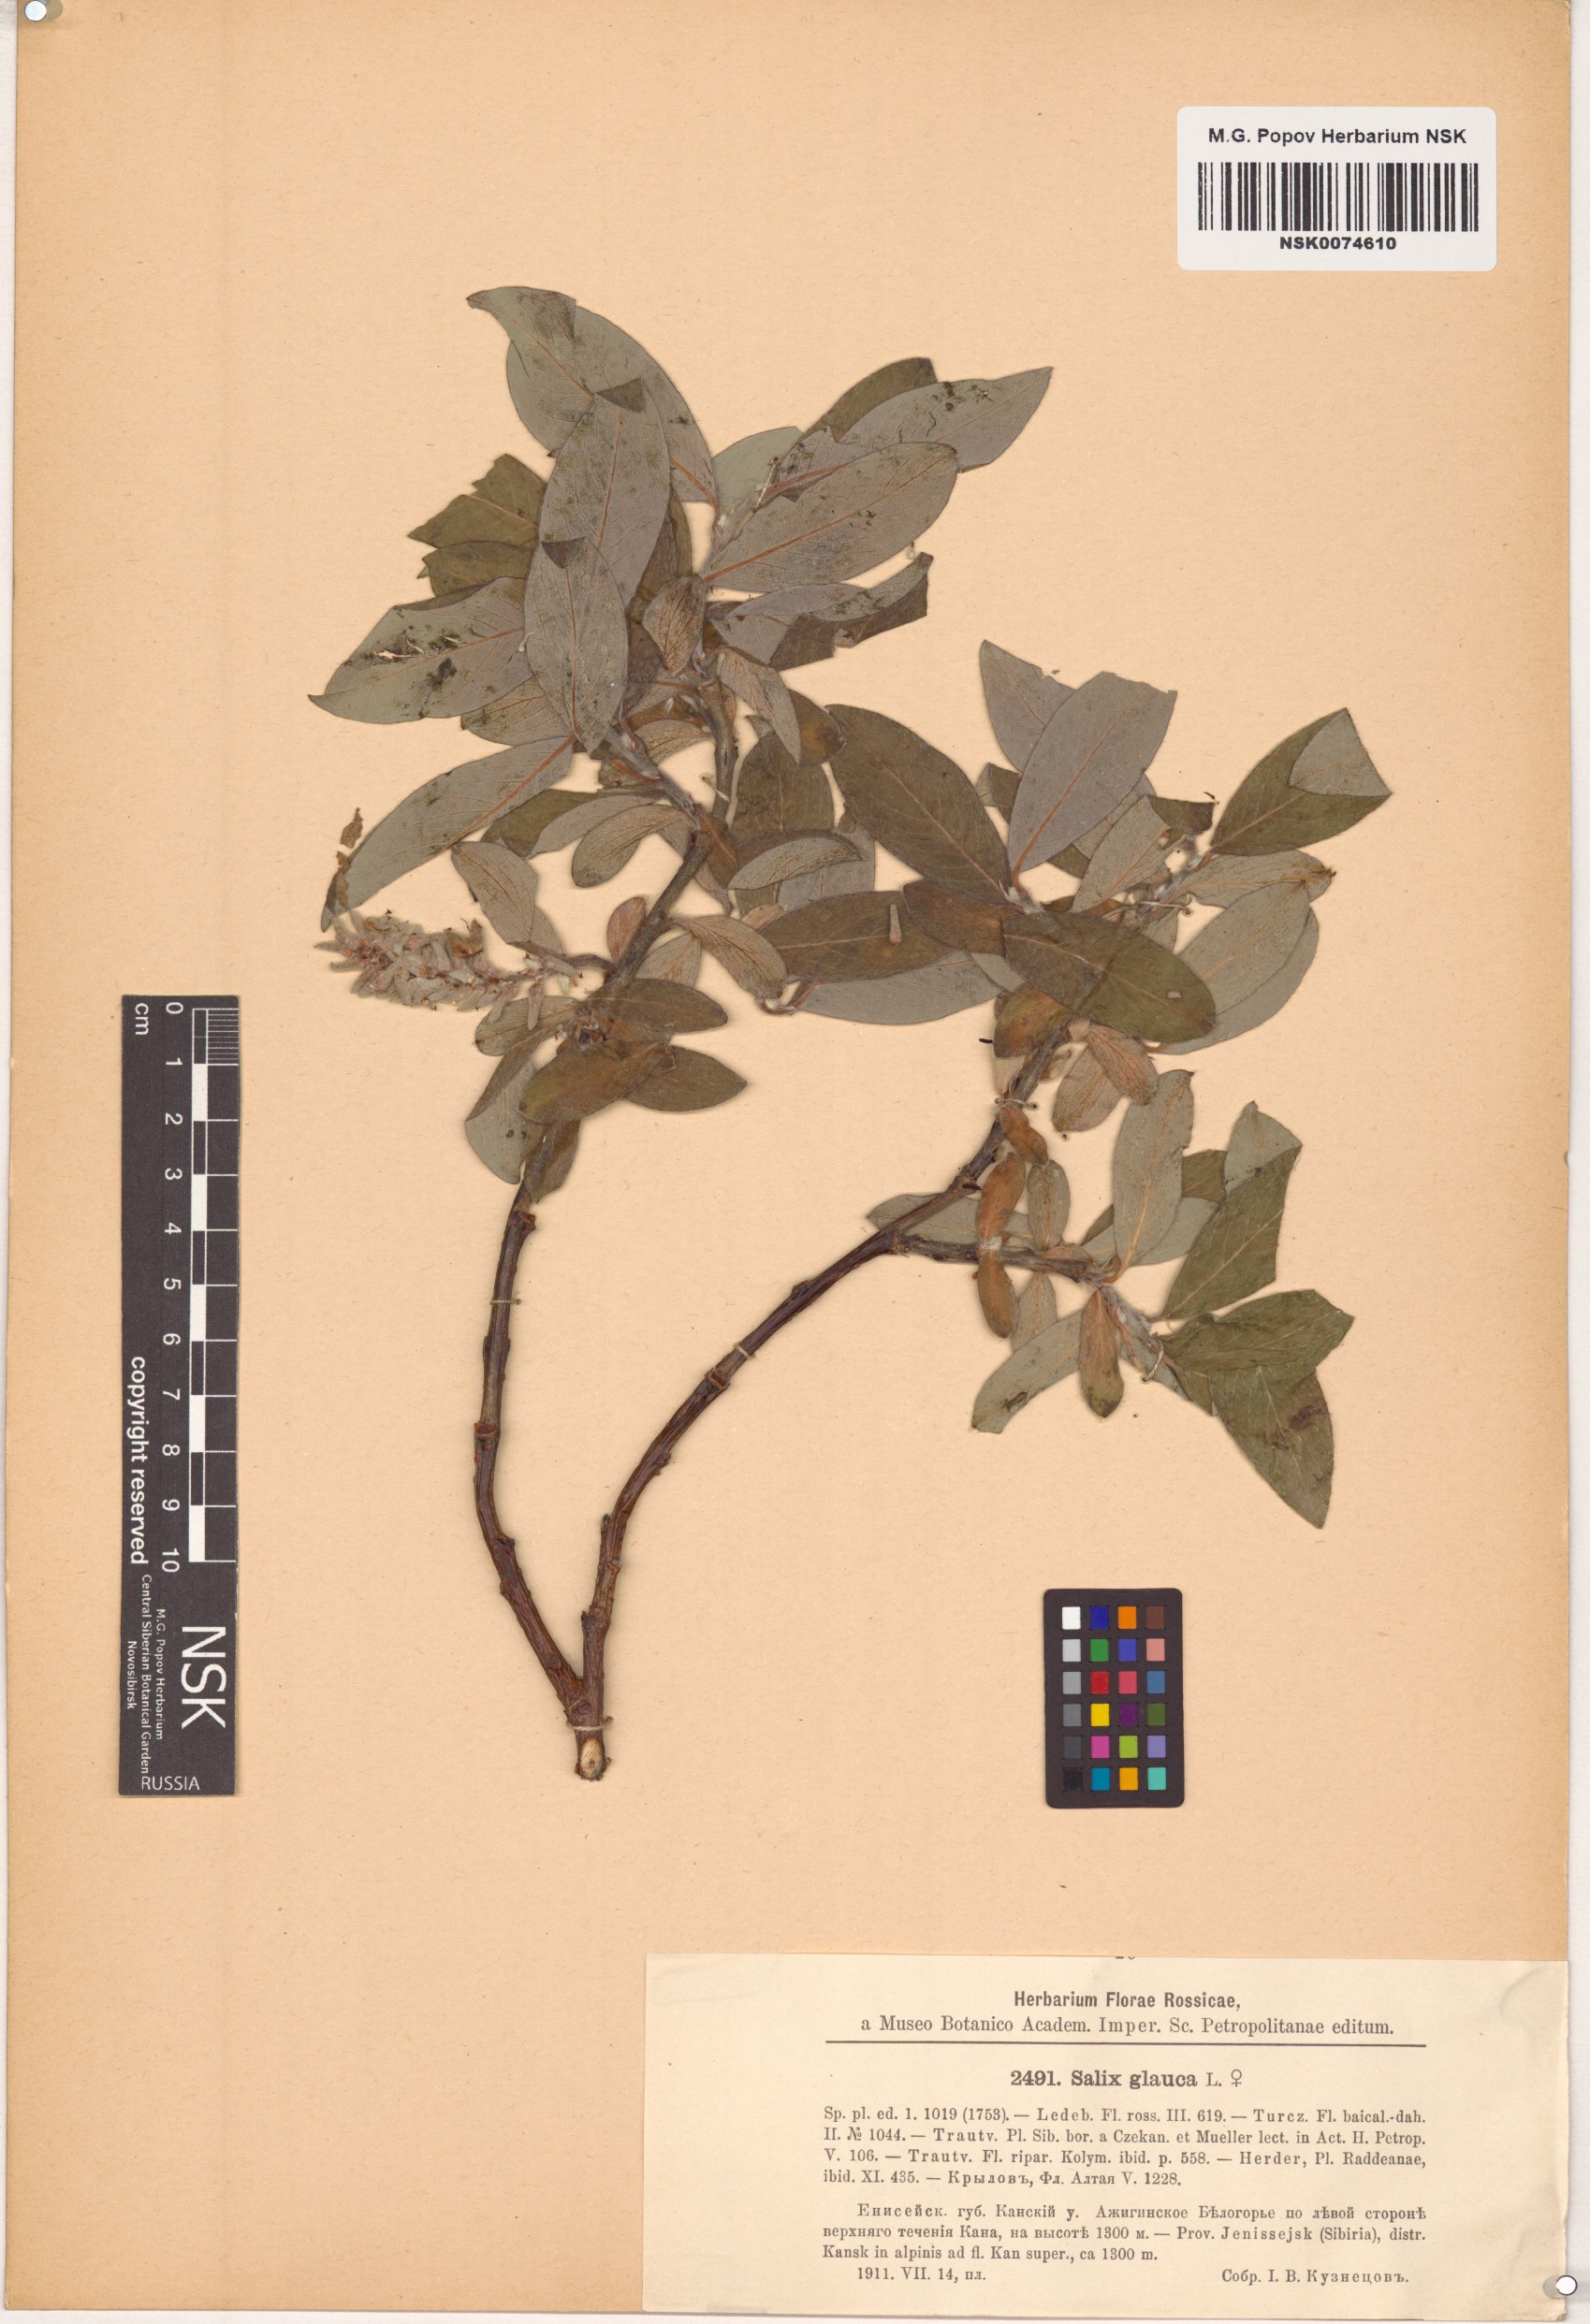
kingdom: Plantae
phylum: Tracheophyta
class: Magnoliopsida
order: Malpighiales
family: Salicaceae
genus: Salix
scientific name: Salix glauca
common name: Glaucous willow
